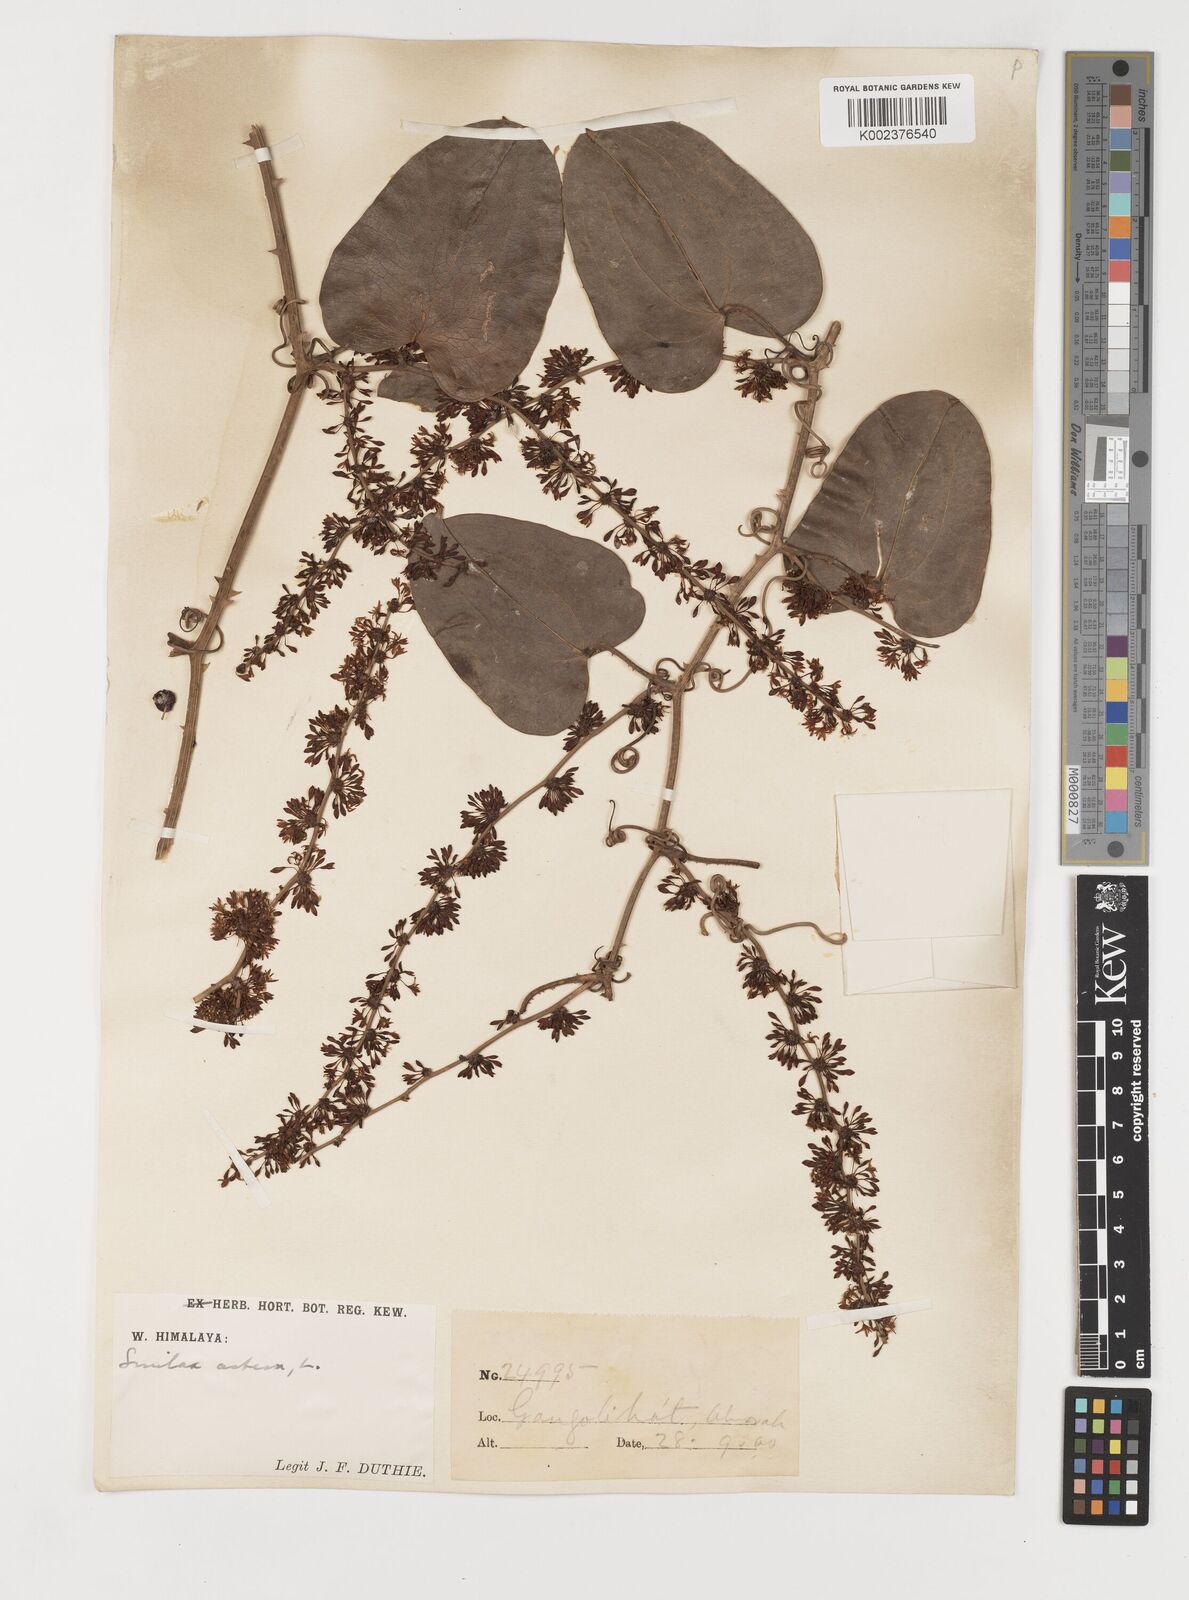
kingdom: Plantae
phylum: Tracheophyta
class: Liliopsida
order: Liliales
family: Smilacaceae
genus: Smilax
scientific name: Smilax aspera
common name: Common smilax
